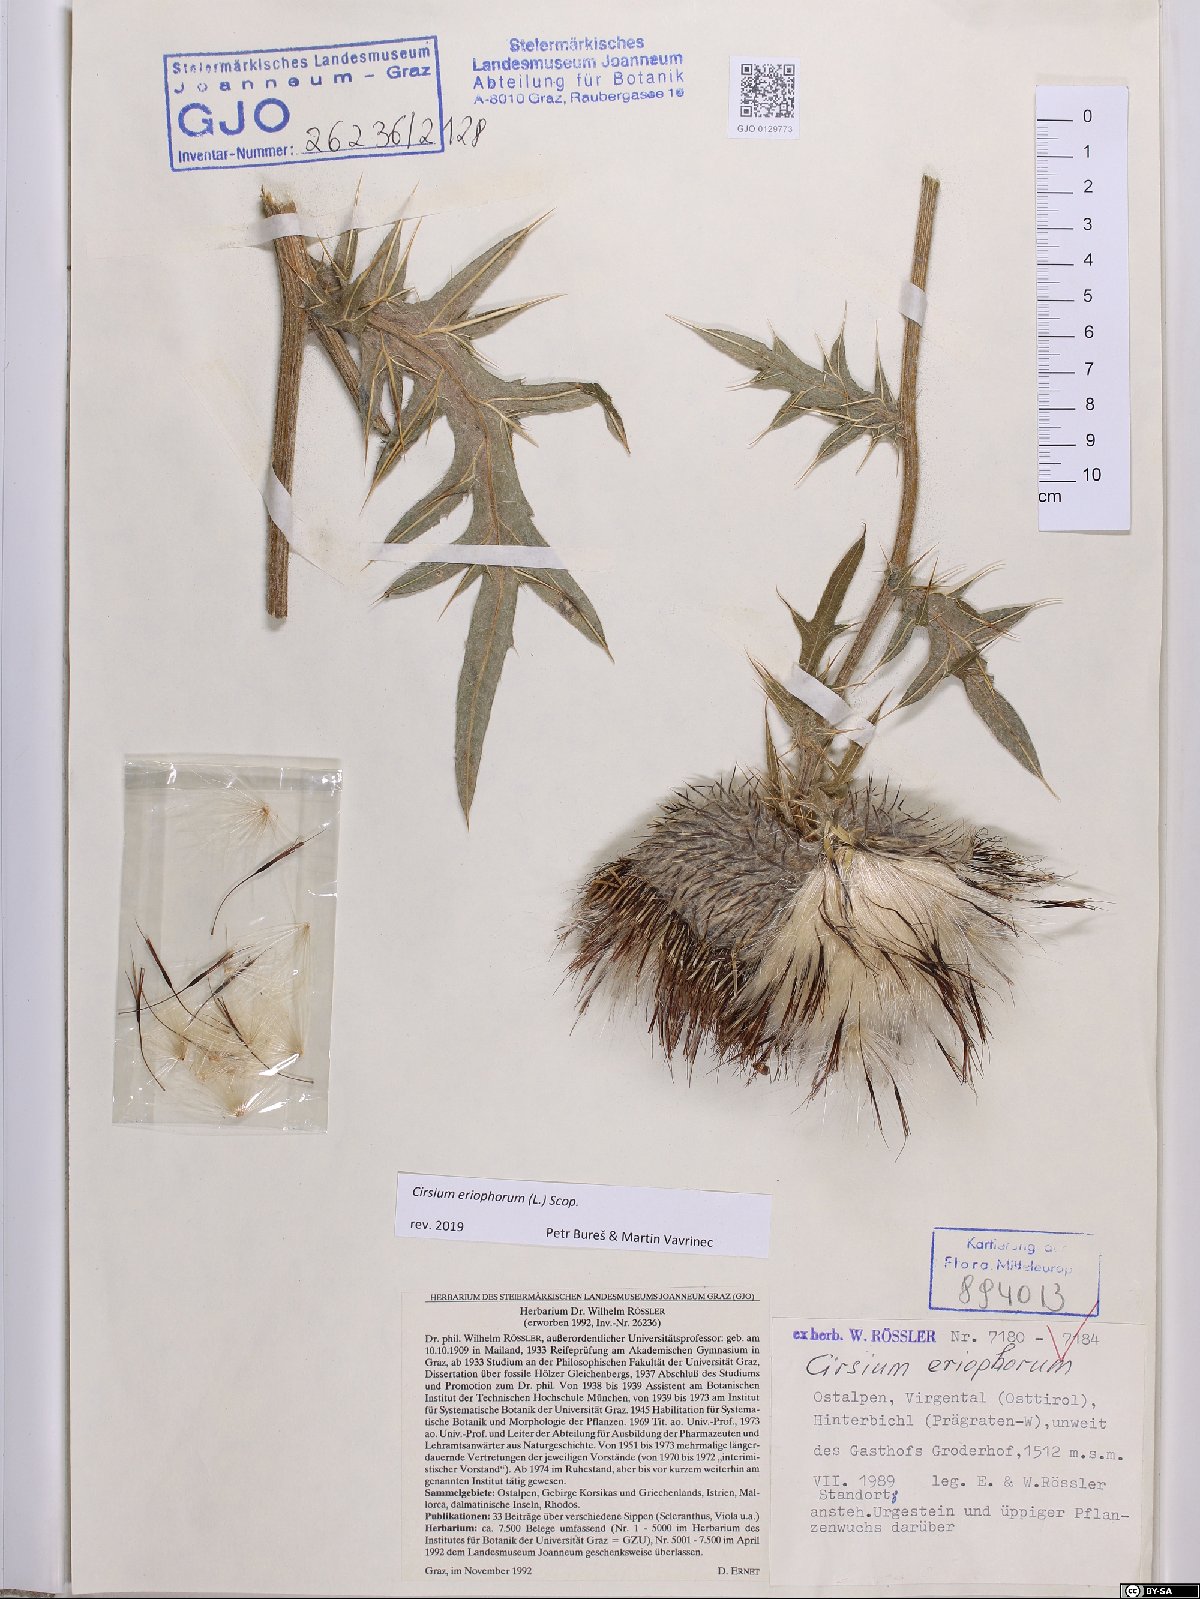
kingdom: Plantae
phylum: Tracheophyta
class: Magnoliopsida
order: Asterales
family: Asteraceae
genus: Lophiolepis
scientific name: Lophiolepis eriophora
